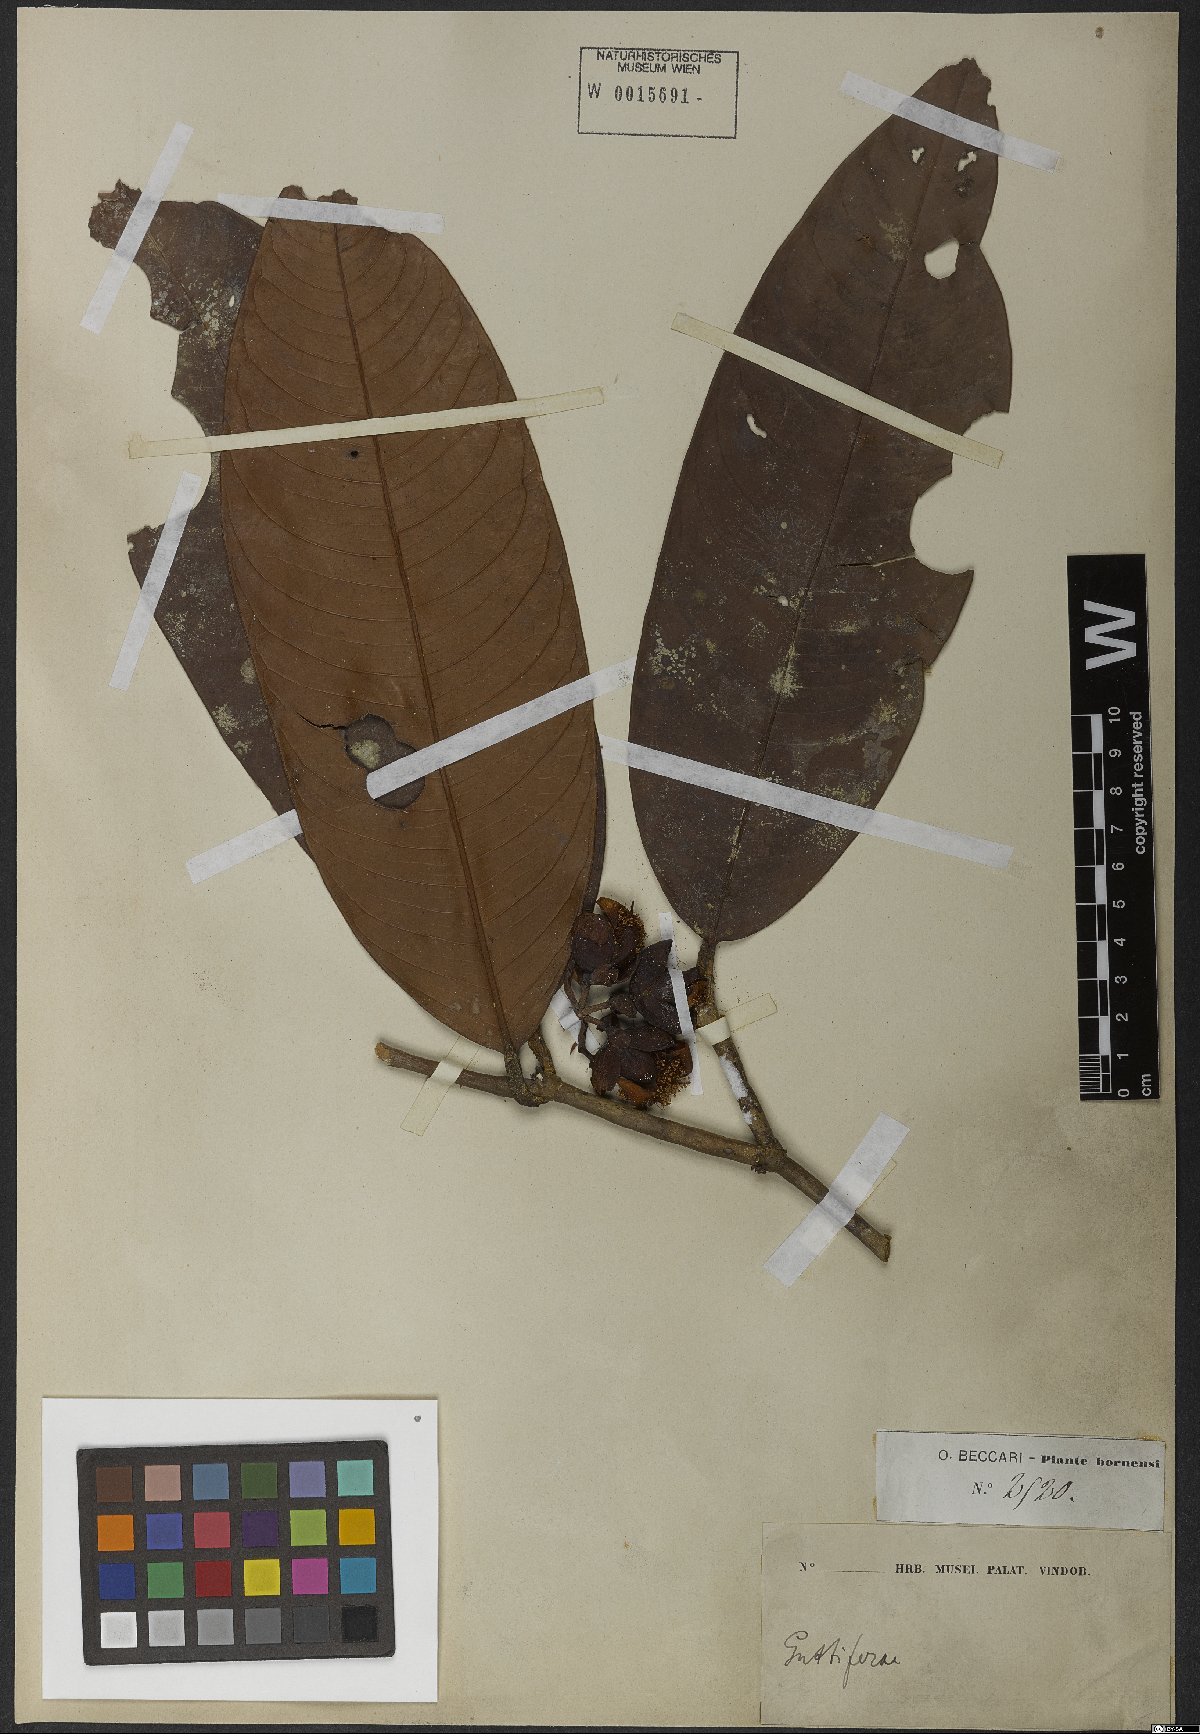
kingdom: Plantae
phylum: Tracheophyta
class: Magnoliopsida
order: Malpighiales
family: Hypericaceae
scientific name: Hypericaceae
